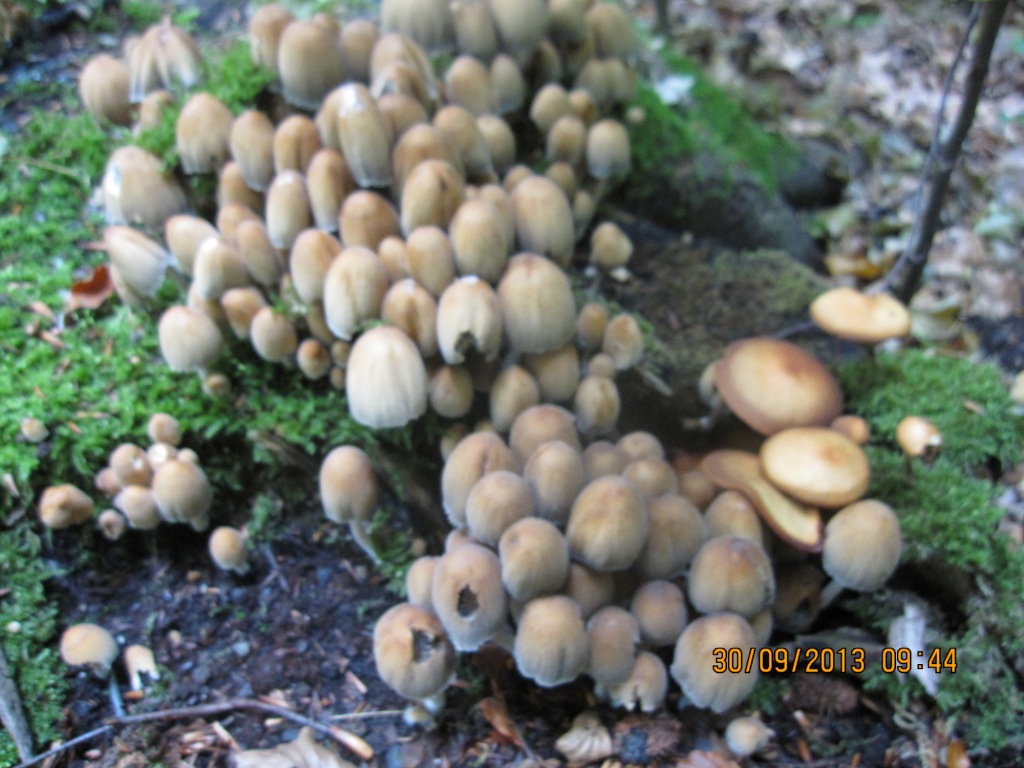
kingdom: Fungi
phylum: Basidiomycota
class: Agaricomycetes
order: Agaricales
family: Psathyrellaceae
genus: Coprinellus
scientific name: Coprinellus micaceus
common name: glimmer-blækhat
